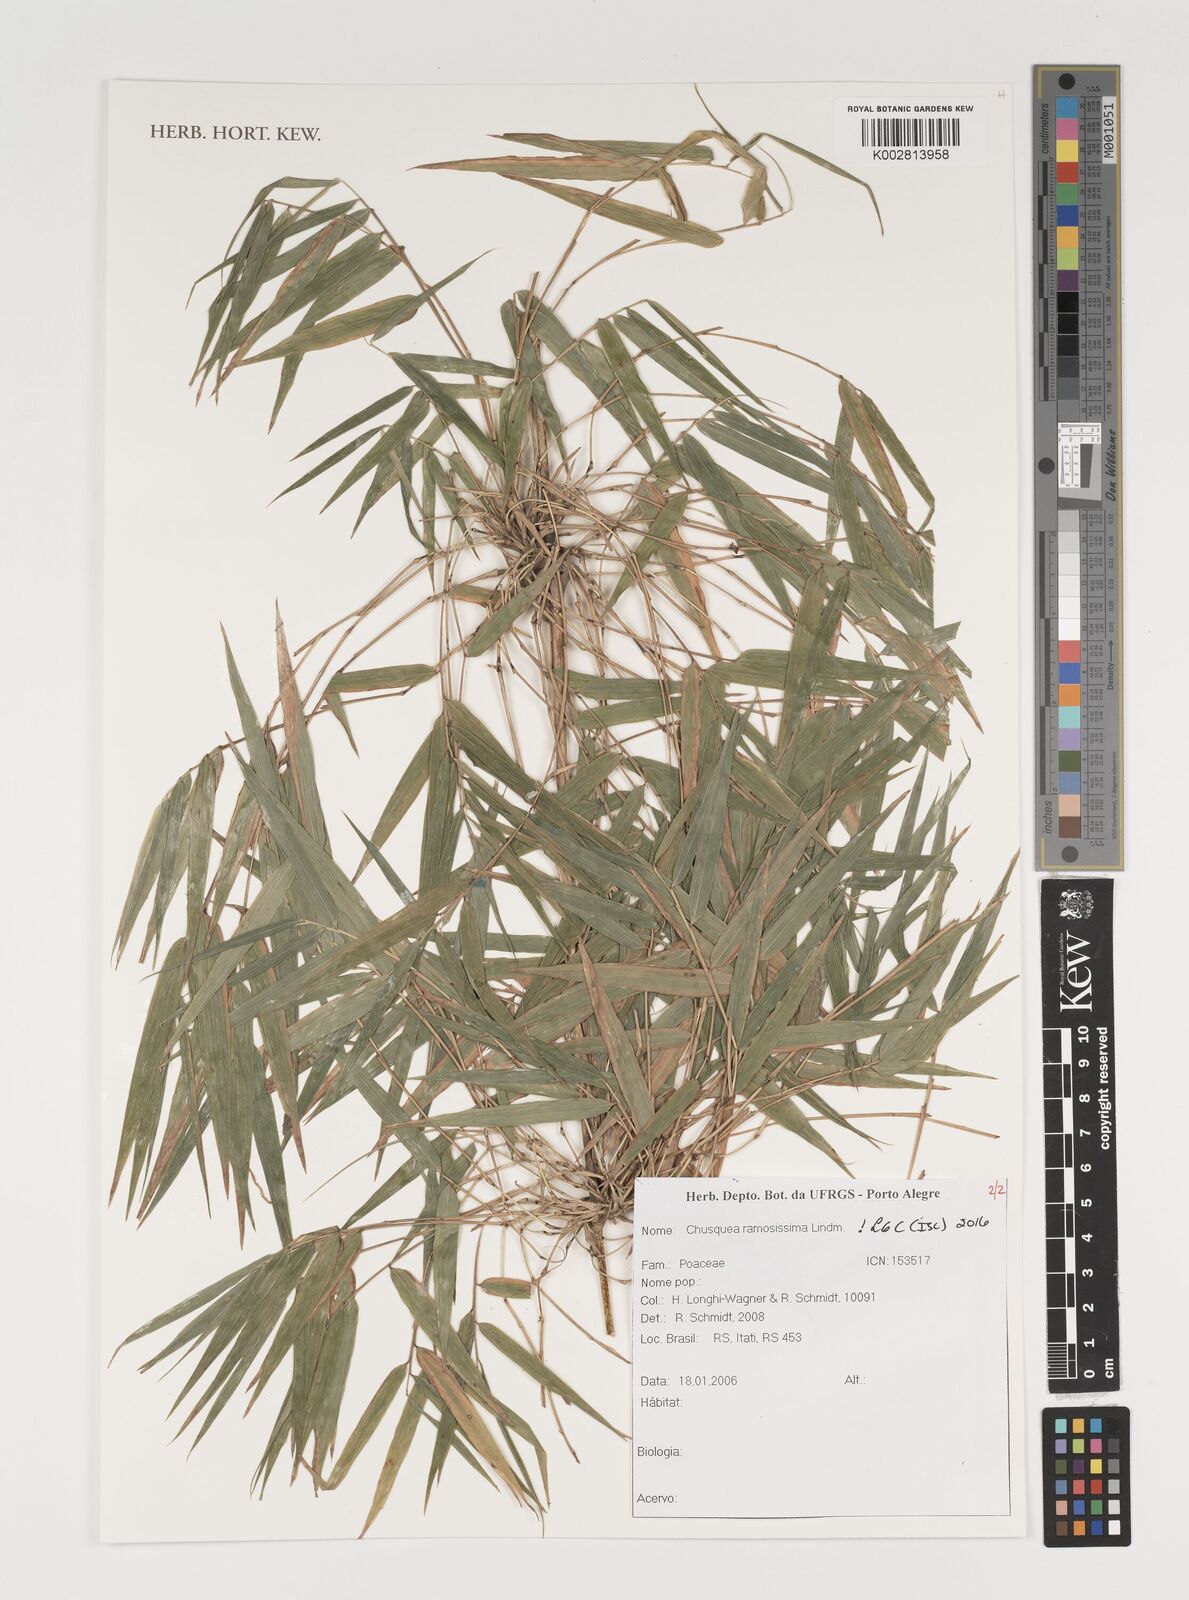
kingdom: Plantae
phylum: Tracheophyta
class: Liliopsida
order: Poales
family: Poaceae
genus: Chusquea
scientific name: Chusquea ramosissima
